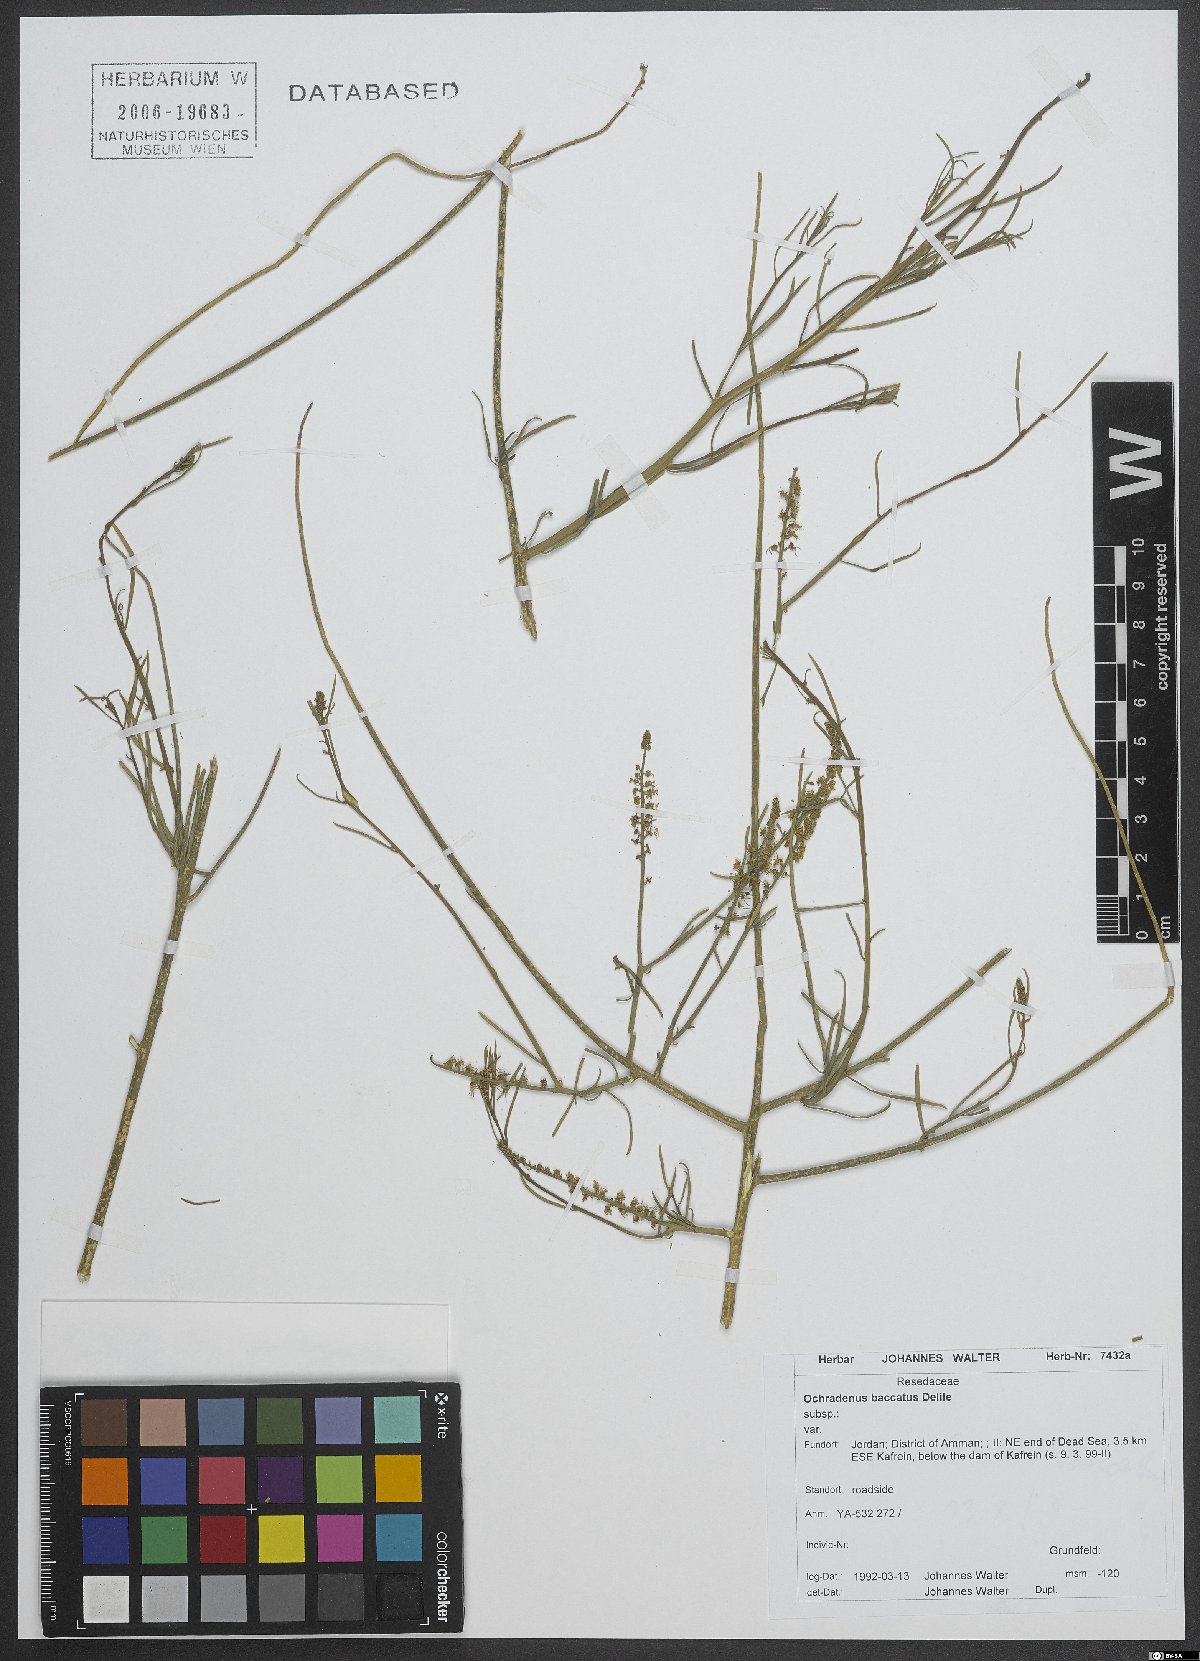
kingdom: Plantae
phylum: Tracheophyta
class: Magnoliopsida
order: Brassicales
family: Resedaceae
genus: Ochradenus
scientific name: Ochradenus baccatus
